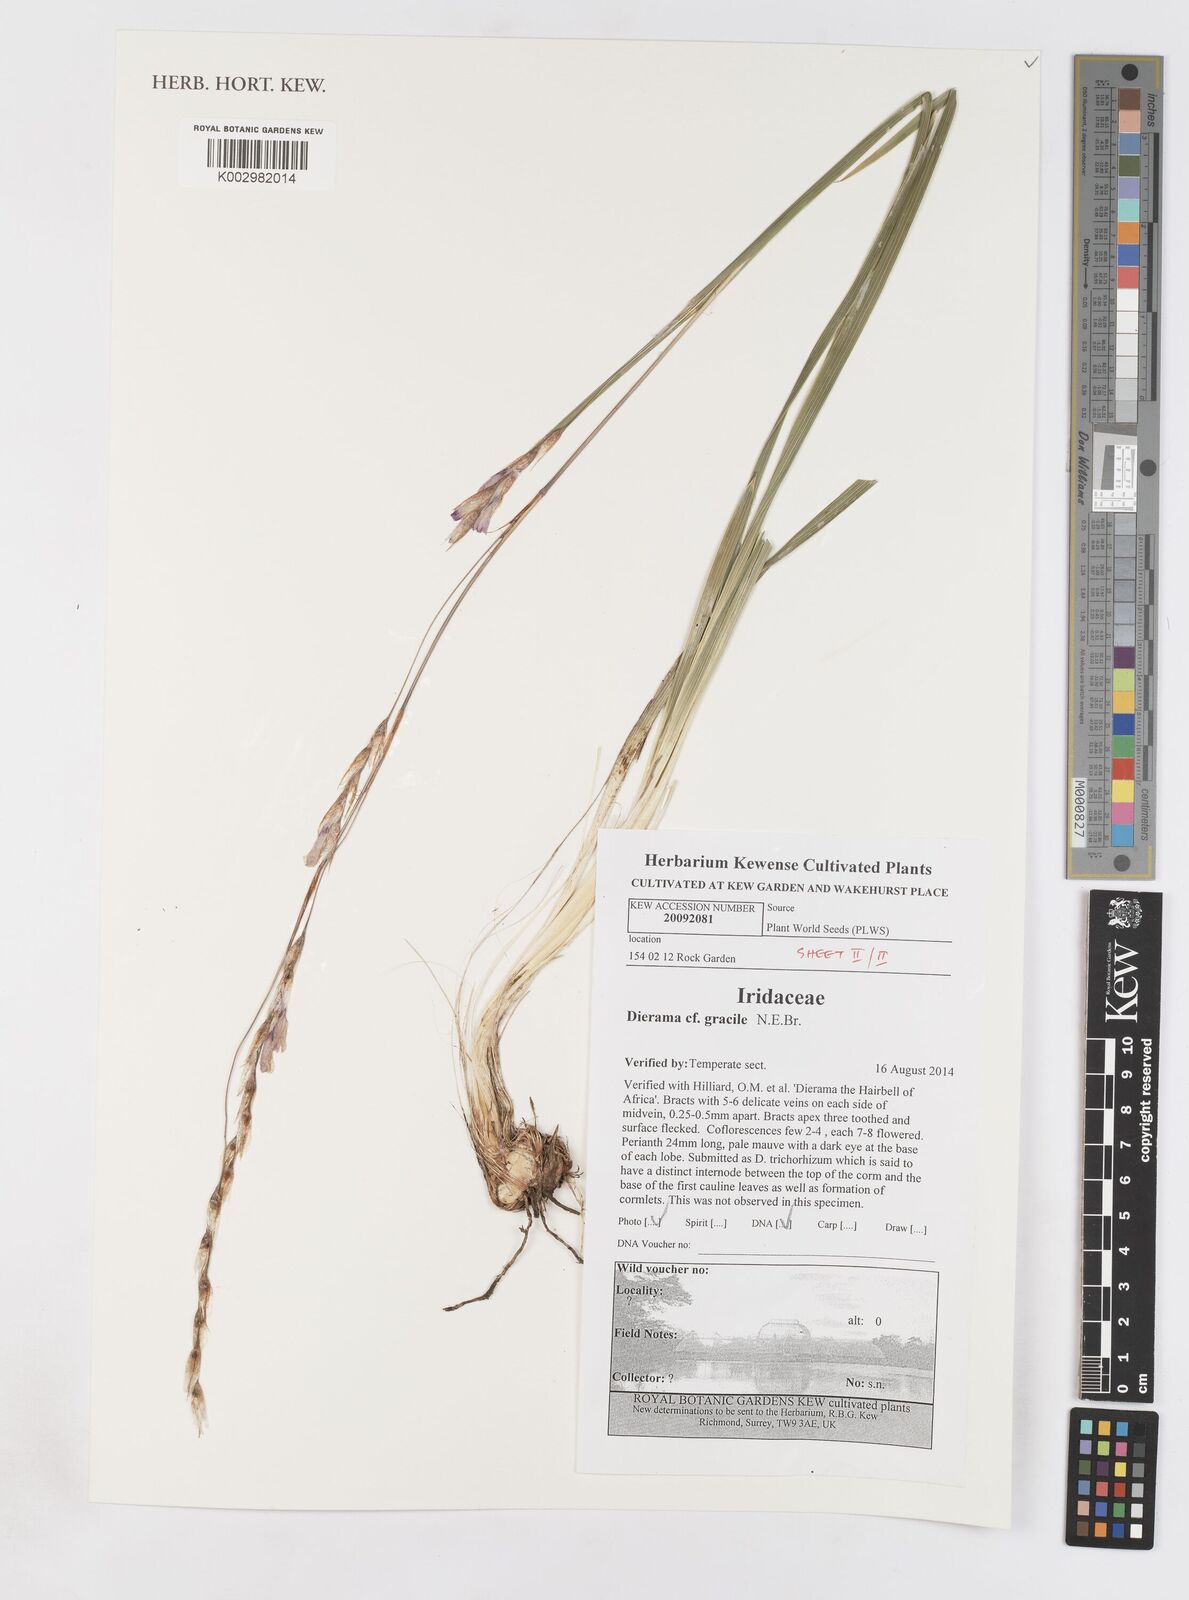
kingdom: Plantae
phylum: Tracheophyta
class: Liliopsida
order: Asparagales
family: Iridaceae
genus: Dierama
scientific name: Dierama gracile
